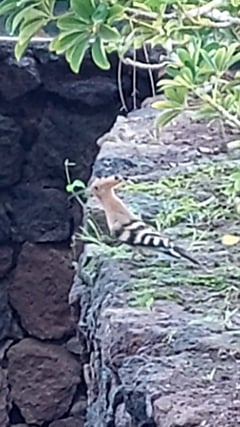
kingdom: Animalia
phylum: Chordata
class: Aves
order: Bucerotiformes
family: Upupidae
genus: Upupa
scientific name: Upupa epops
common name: Eurasian hoopoe
